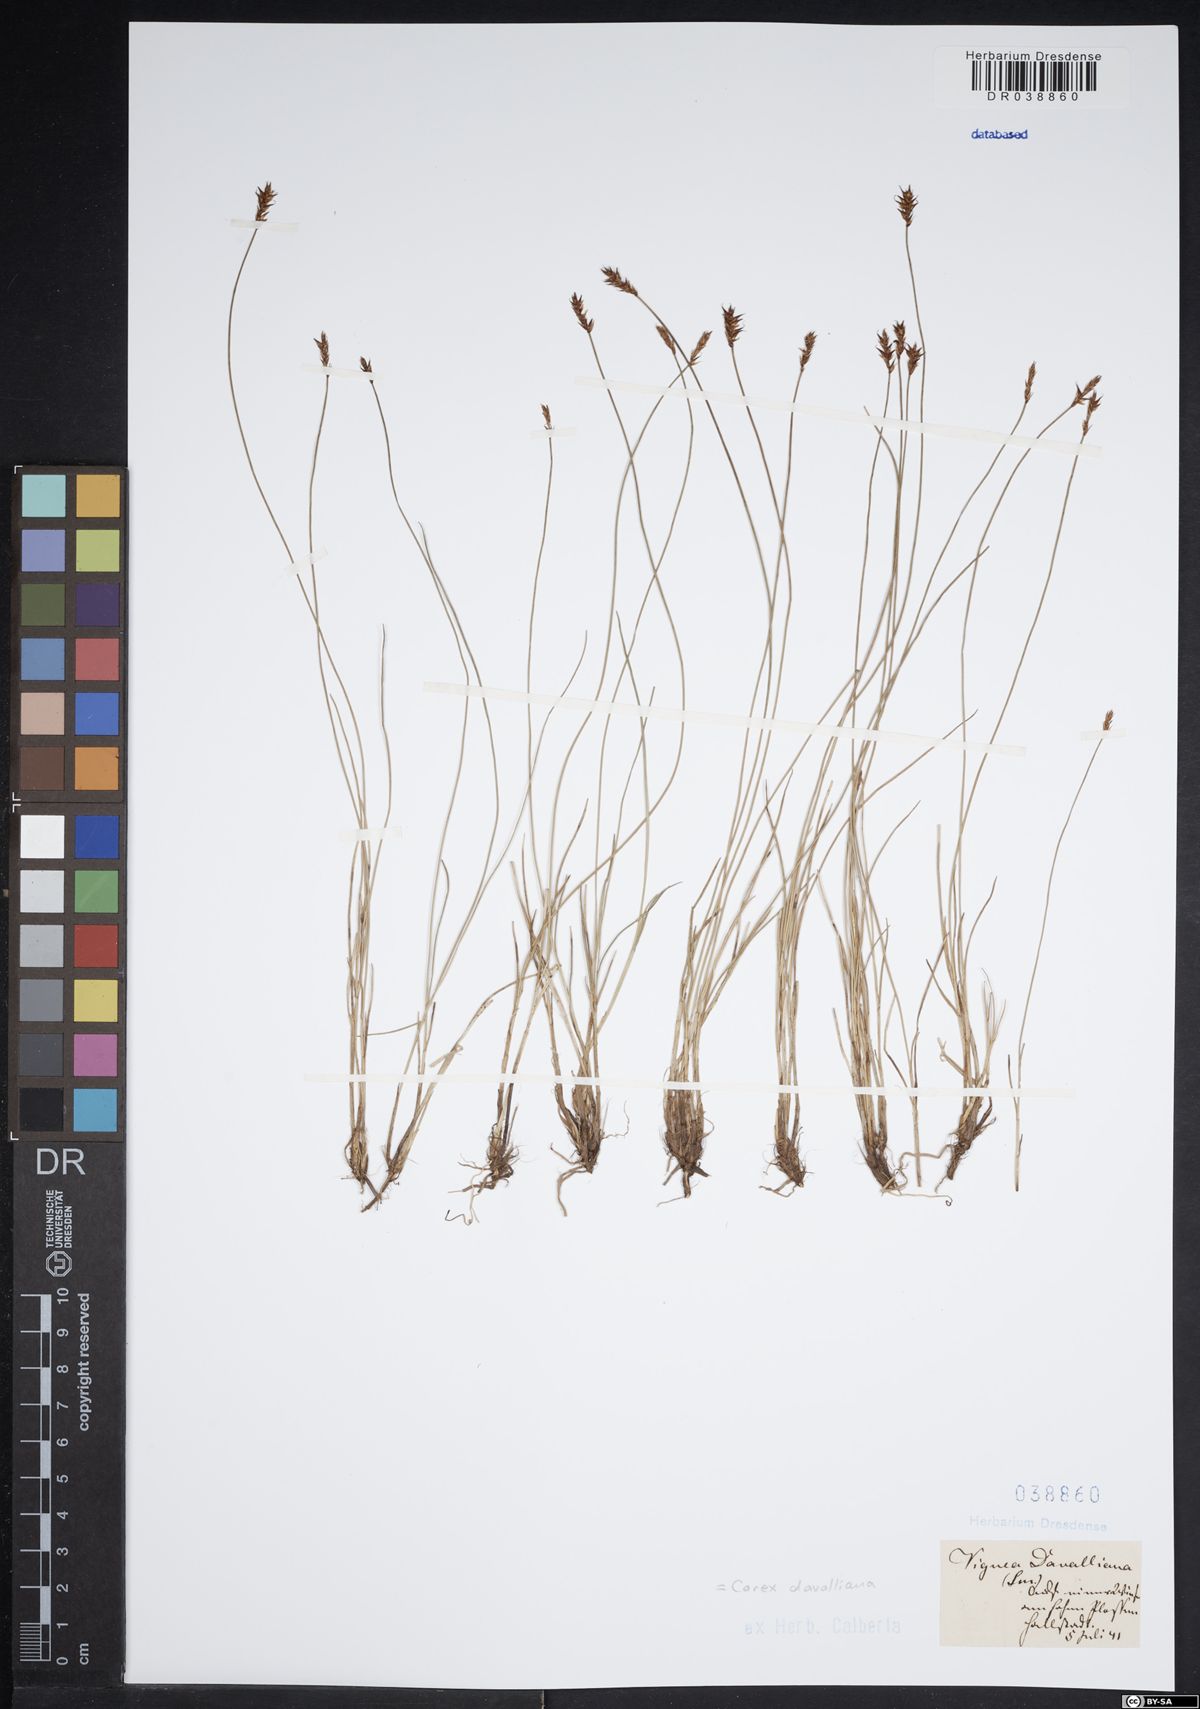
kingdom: Plantae
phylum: Tracheophyta
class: Liliopsida
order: Poales
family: Cyperaceae
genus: Carex
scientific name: Carex davalliana
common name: Davall's sedge
